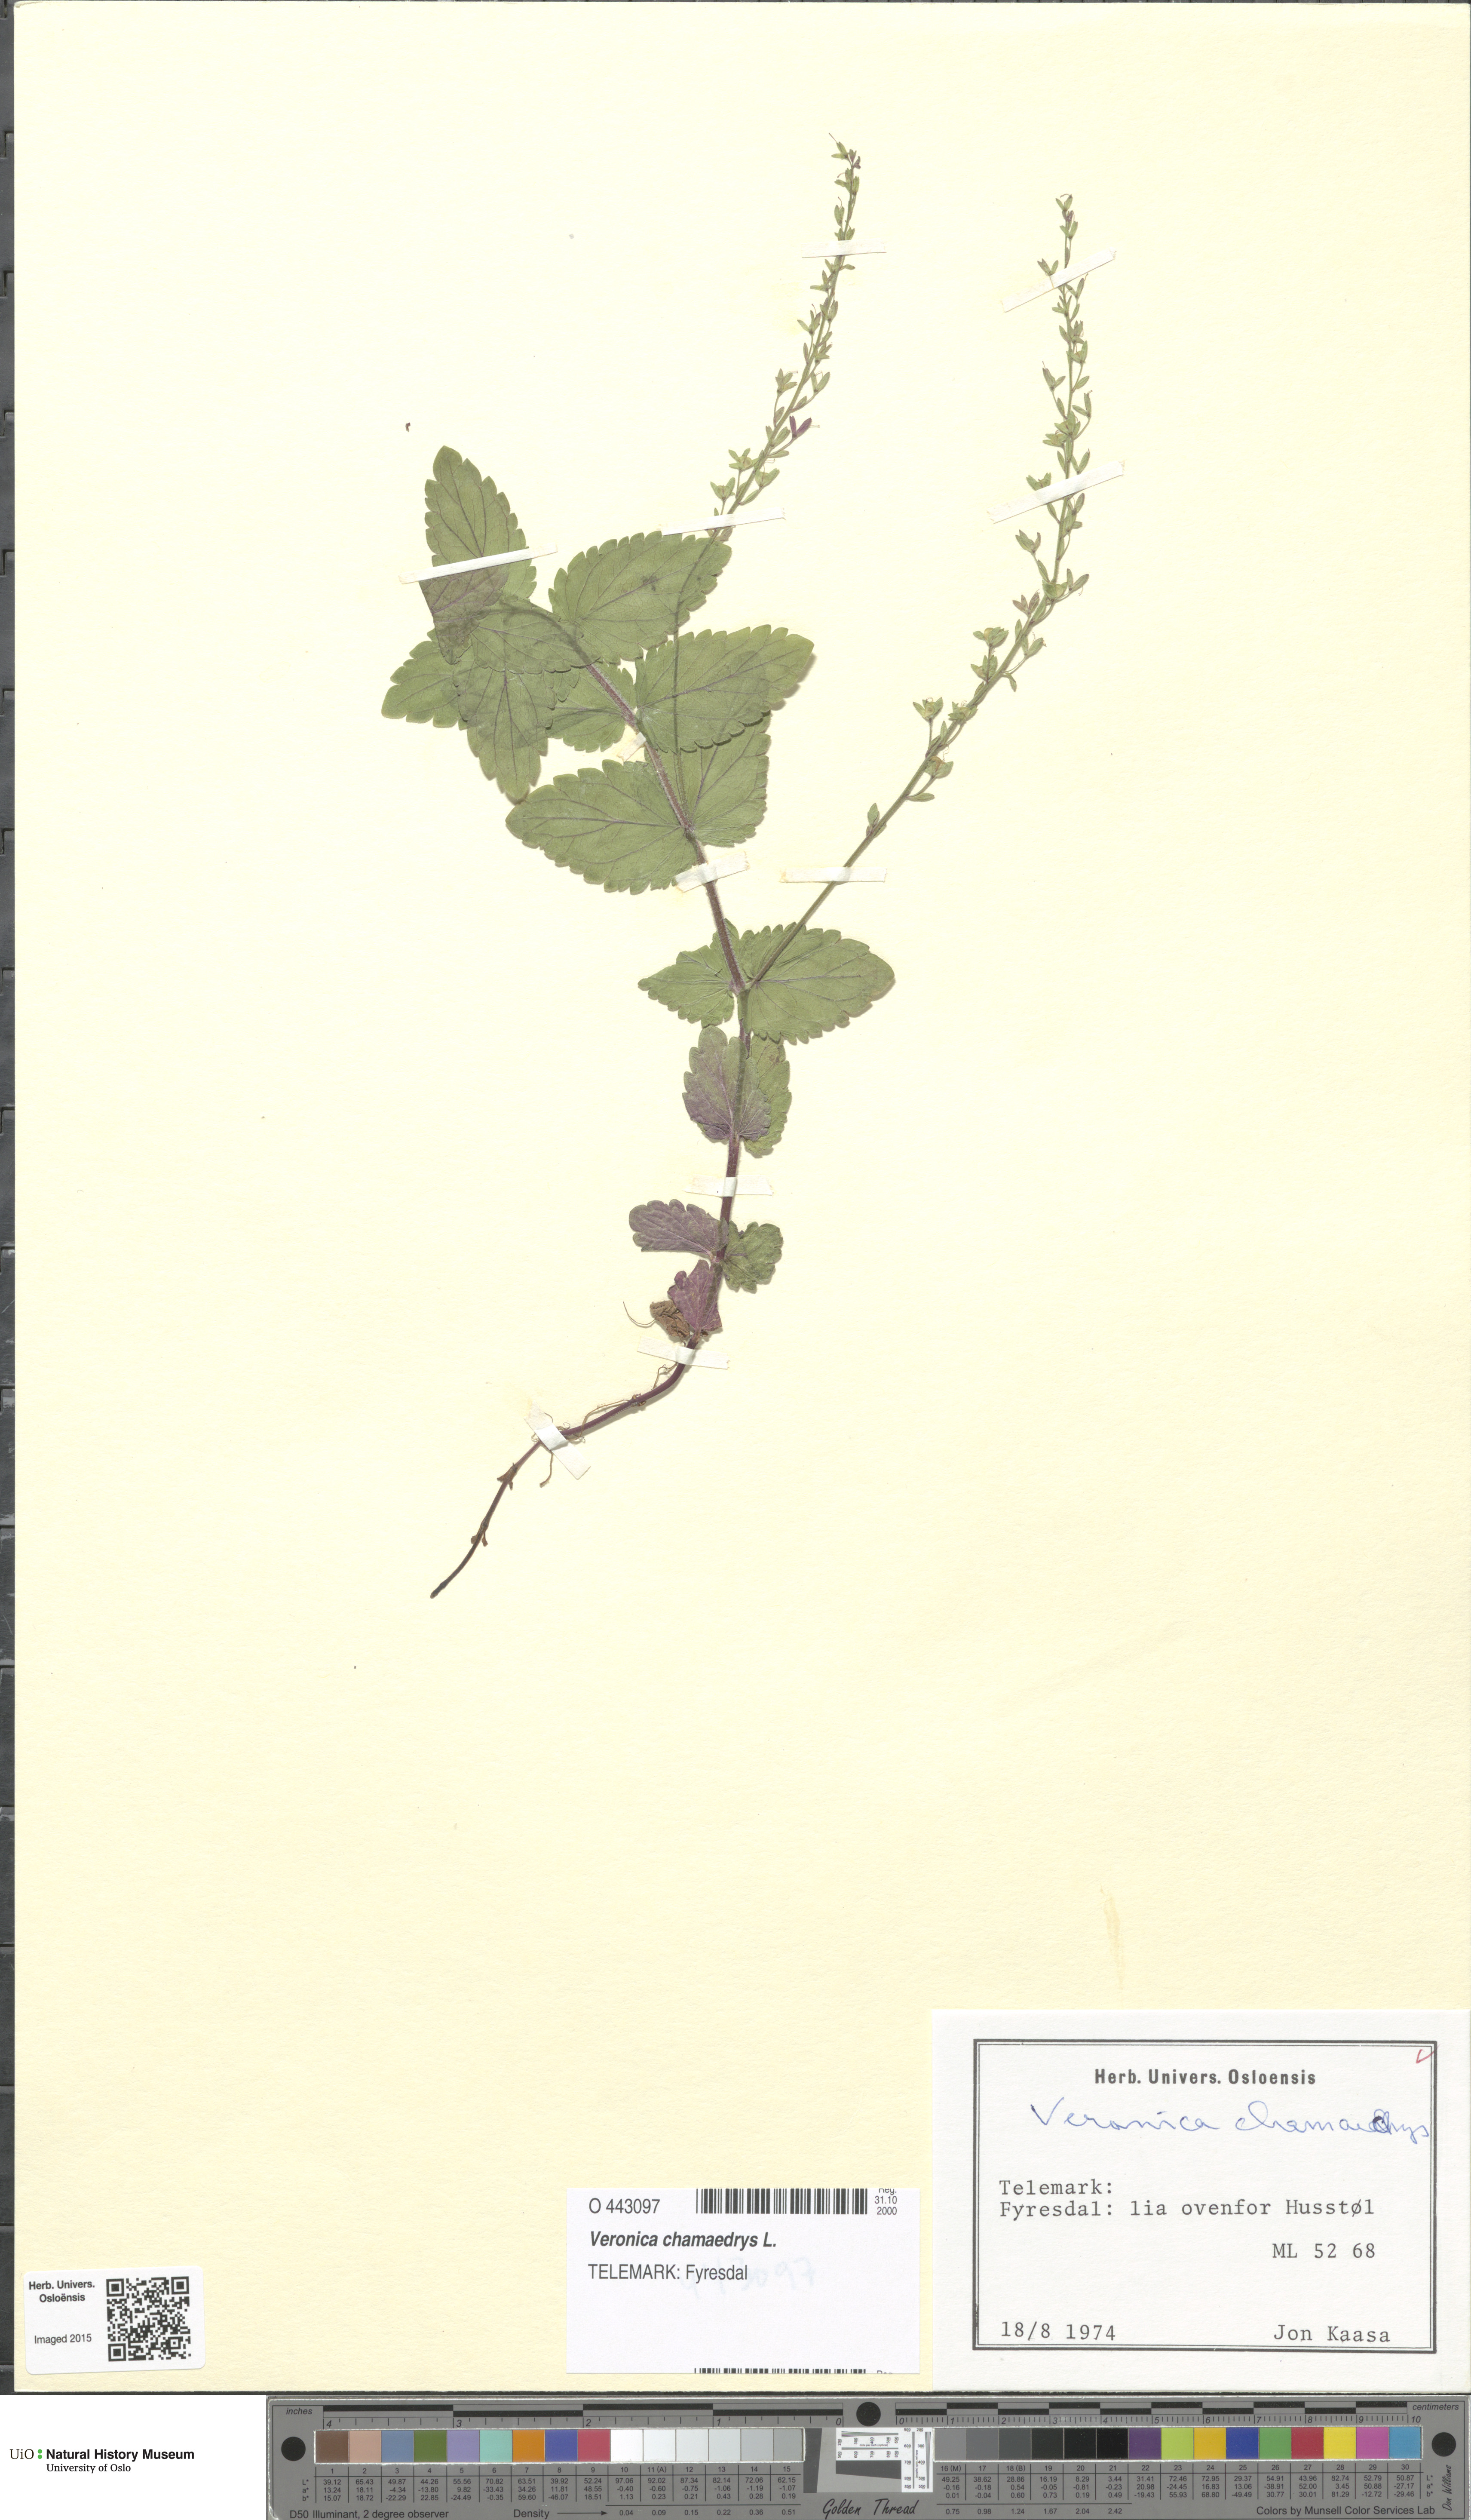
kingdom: Plantae
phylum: Tracheophyta
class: Magnoliopsida
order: Lamiales
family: Plantaginaceae
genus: Veronica
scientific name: Veronica chamaedrys
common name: Germander speedwell
